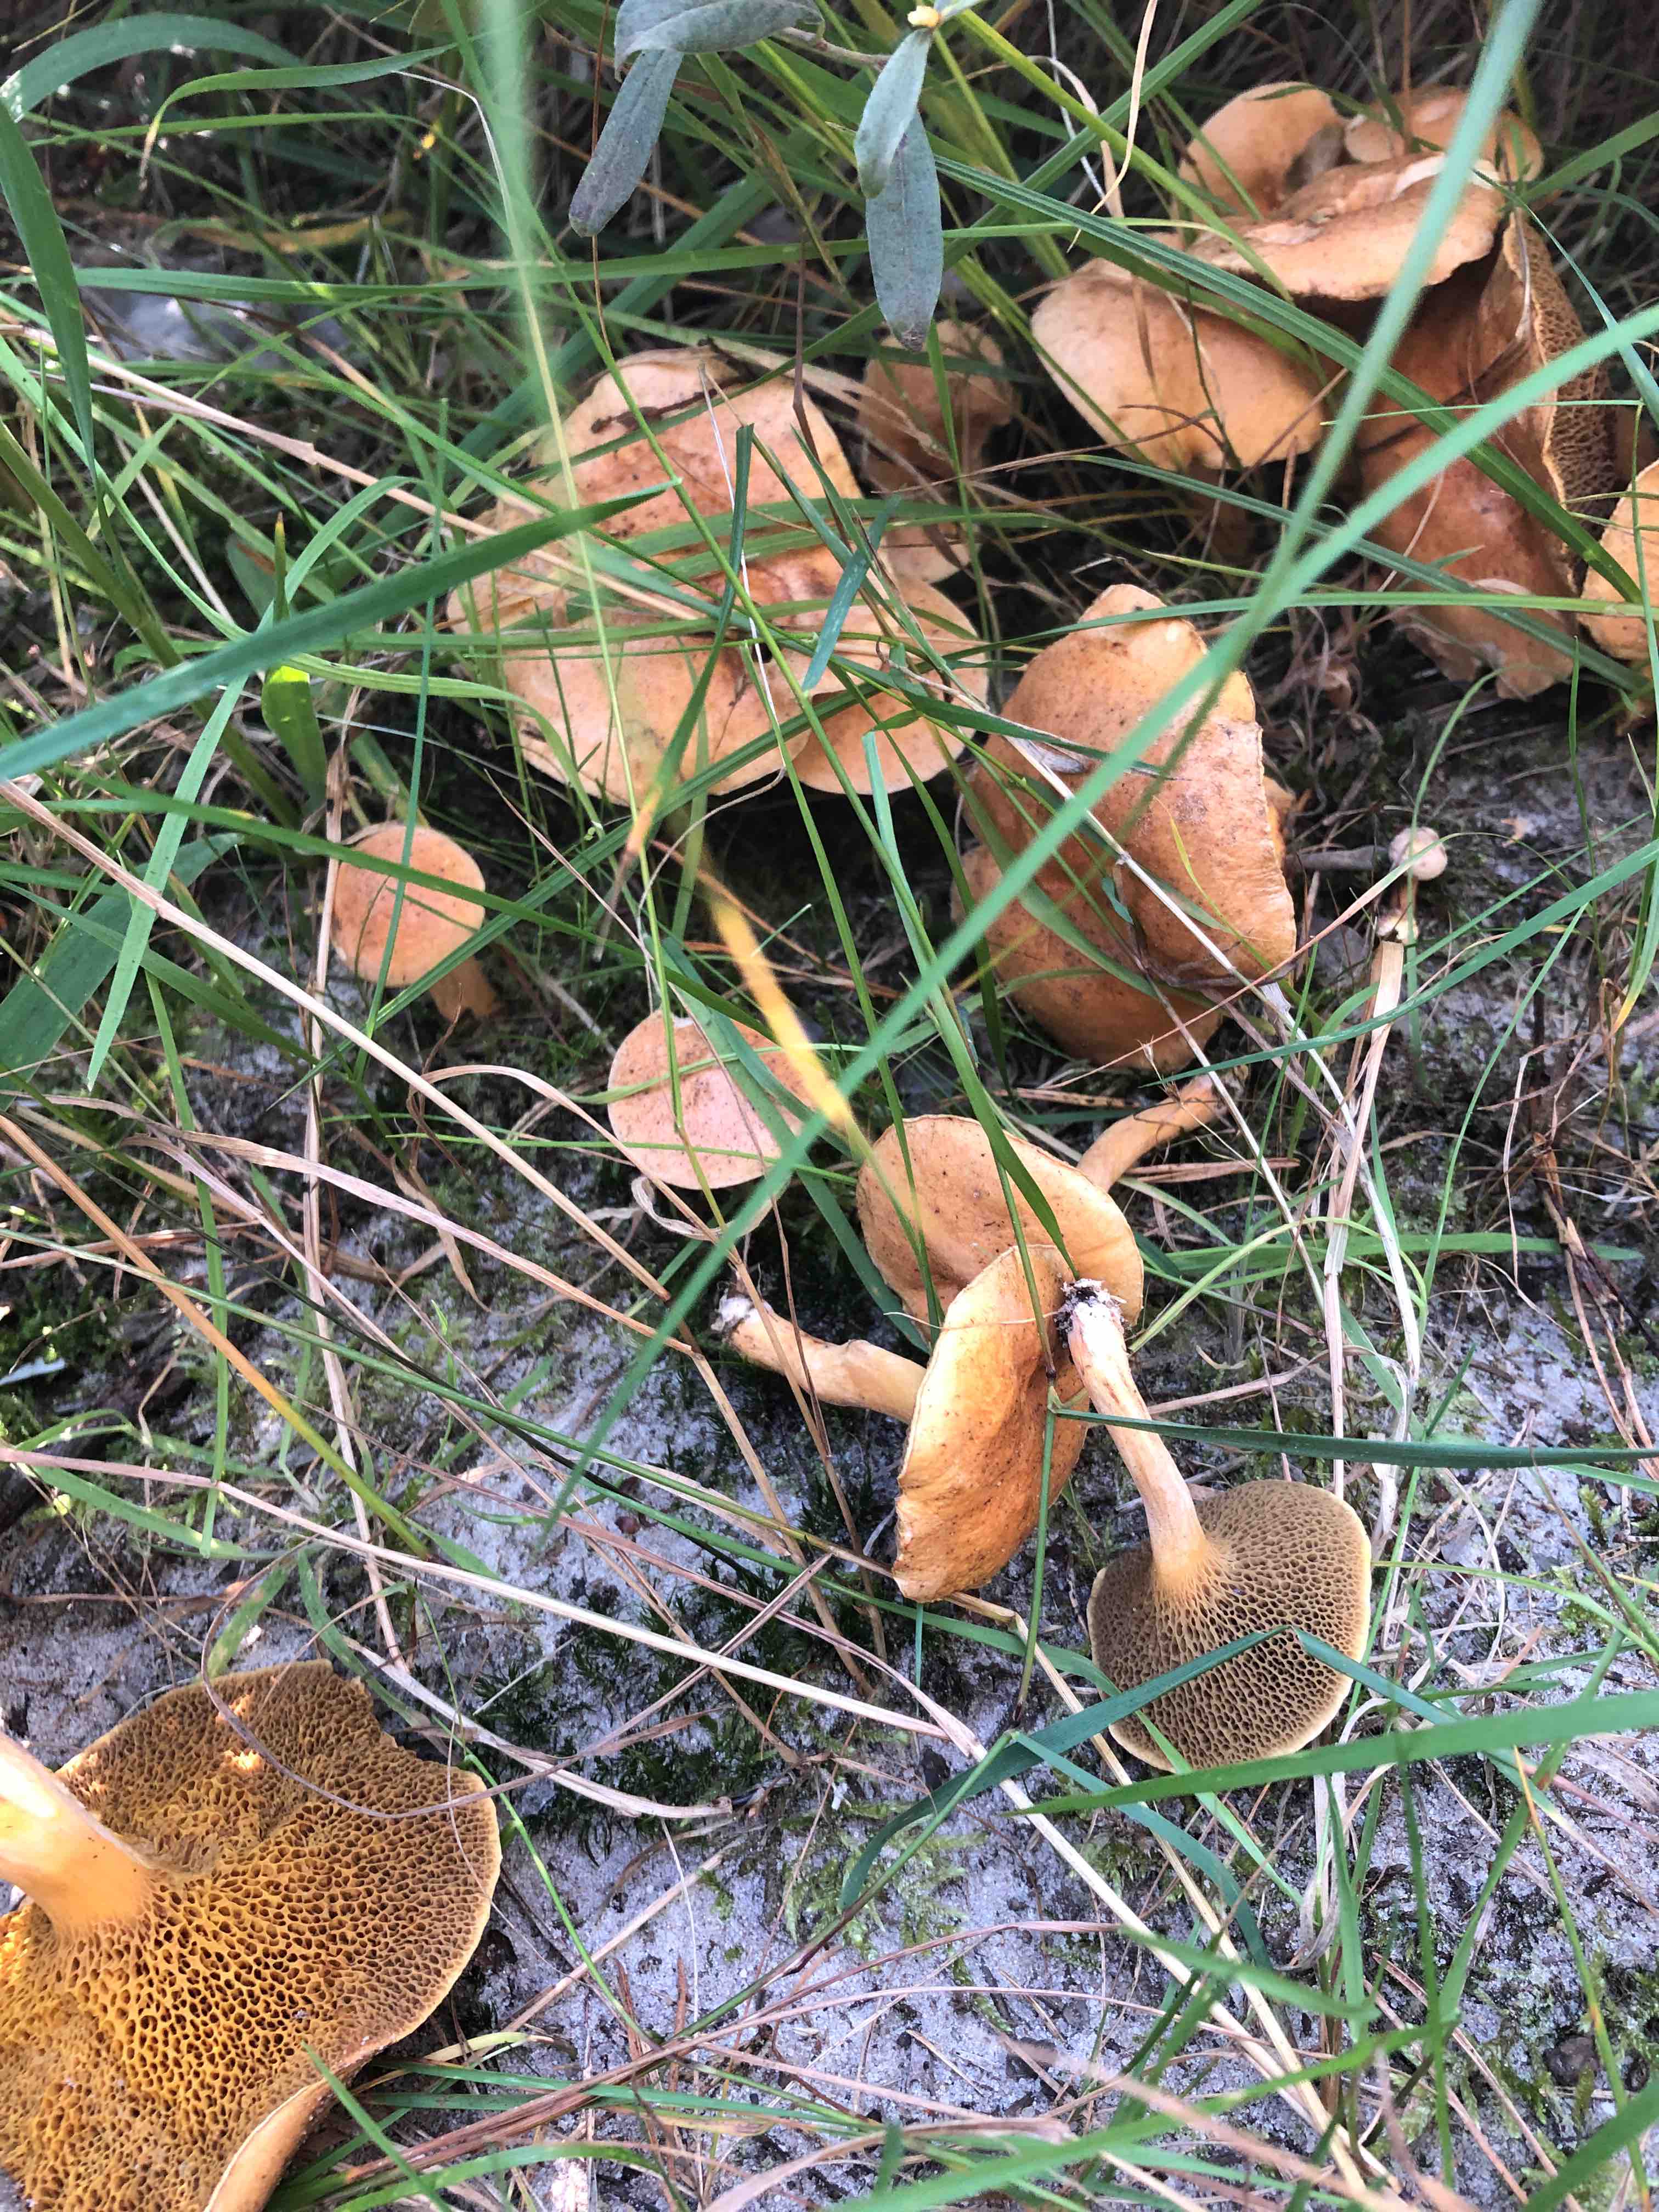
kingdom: Fungi
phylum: Basidiomycota
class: Agaricomycetes
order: Boletales
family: Suillaceae
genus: Suillus
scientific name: Suillus bovinus
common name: grovporet slimrørhat
